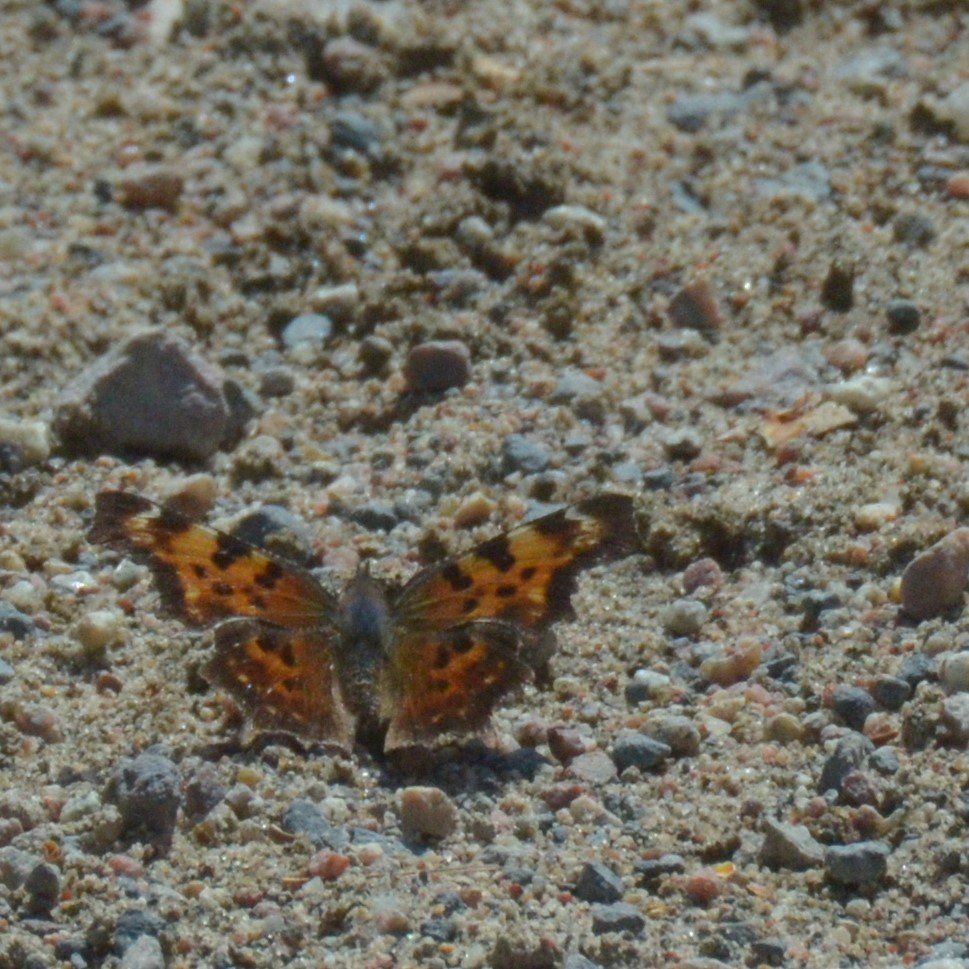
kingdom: Animalia
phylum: Arthropoda
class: Insecta
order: Lepidoptera
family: Nymphalidae
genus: Polygonia
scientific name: Polygonia faunus
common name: Green Comma
